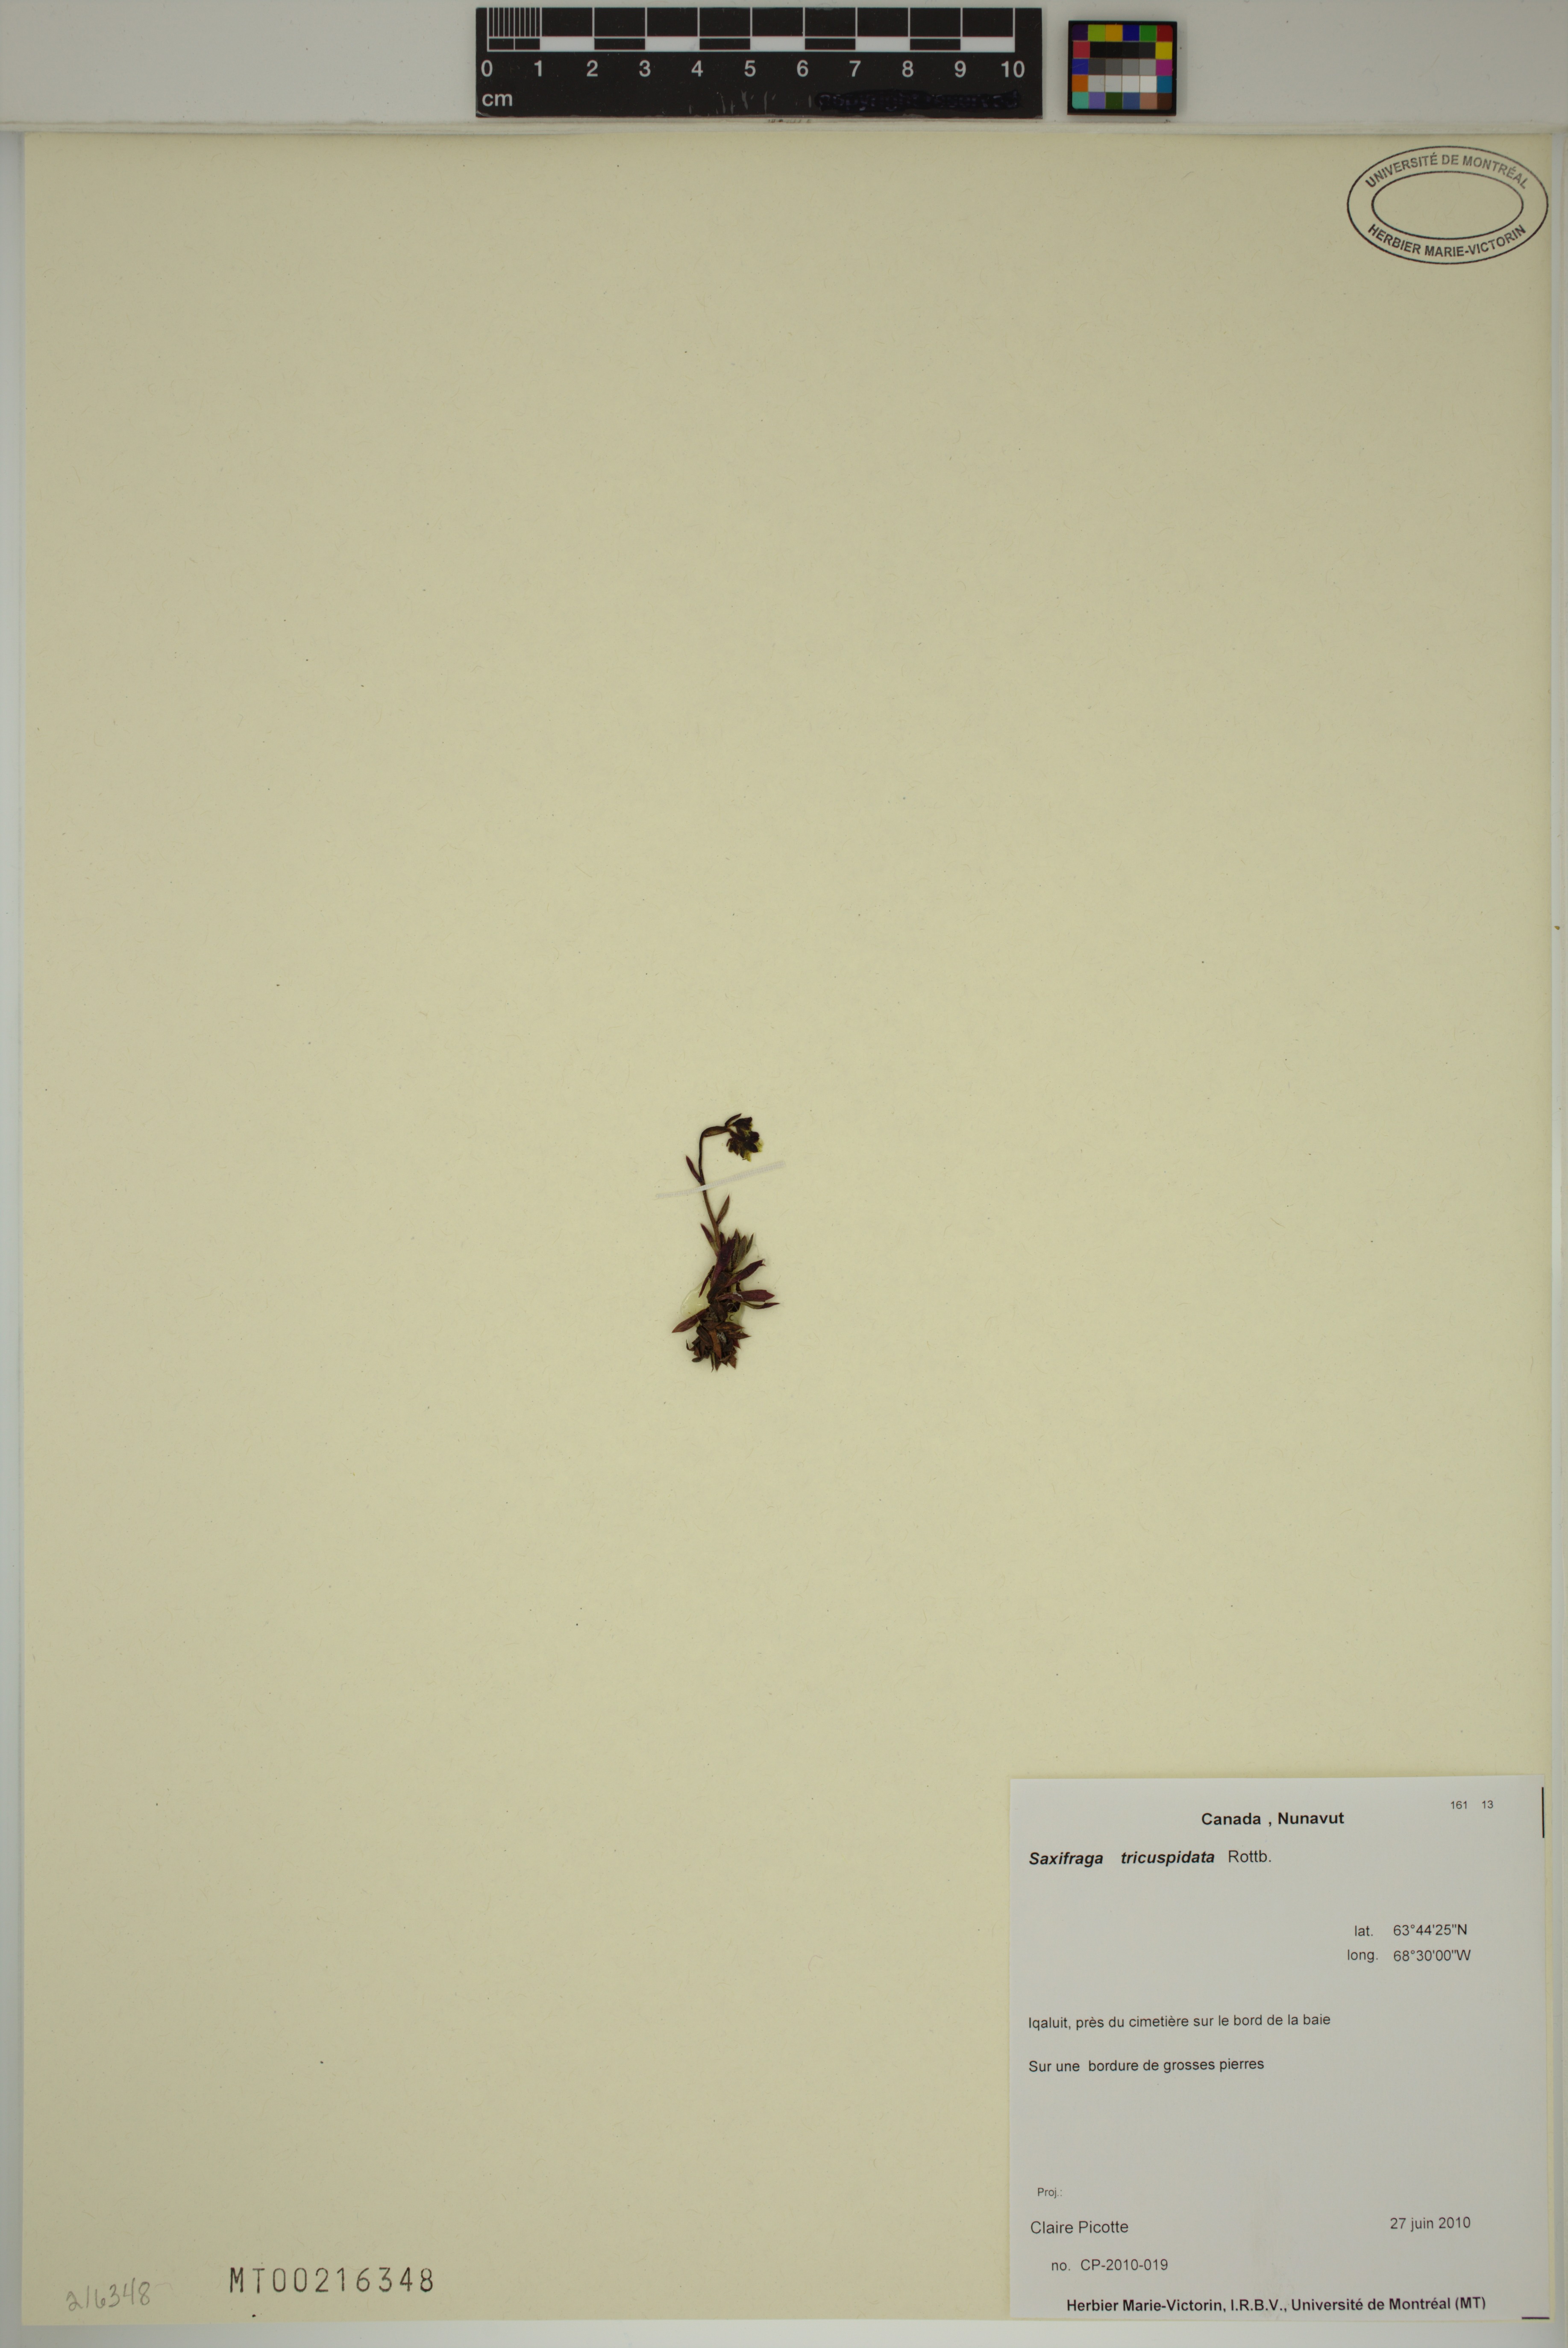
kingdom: Plantae
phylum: Tracheophyta
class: Magnoliopsida
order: Saxifragales
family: Saxifragaceae
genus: Saxifraga
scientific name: Saxifraga tricuspidata
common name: Prickly saxifrage
